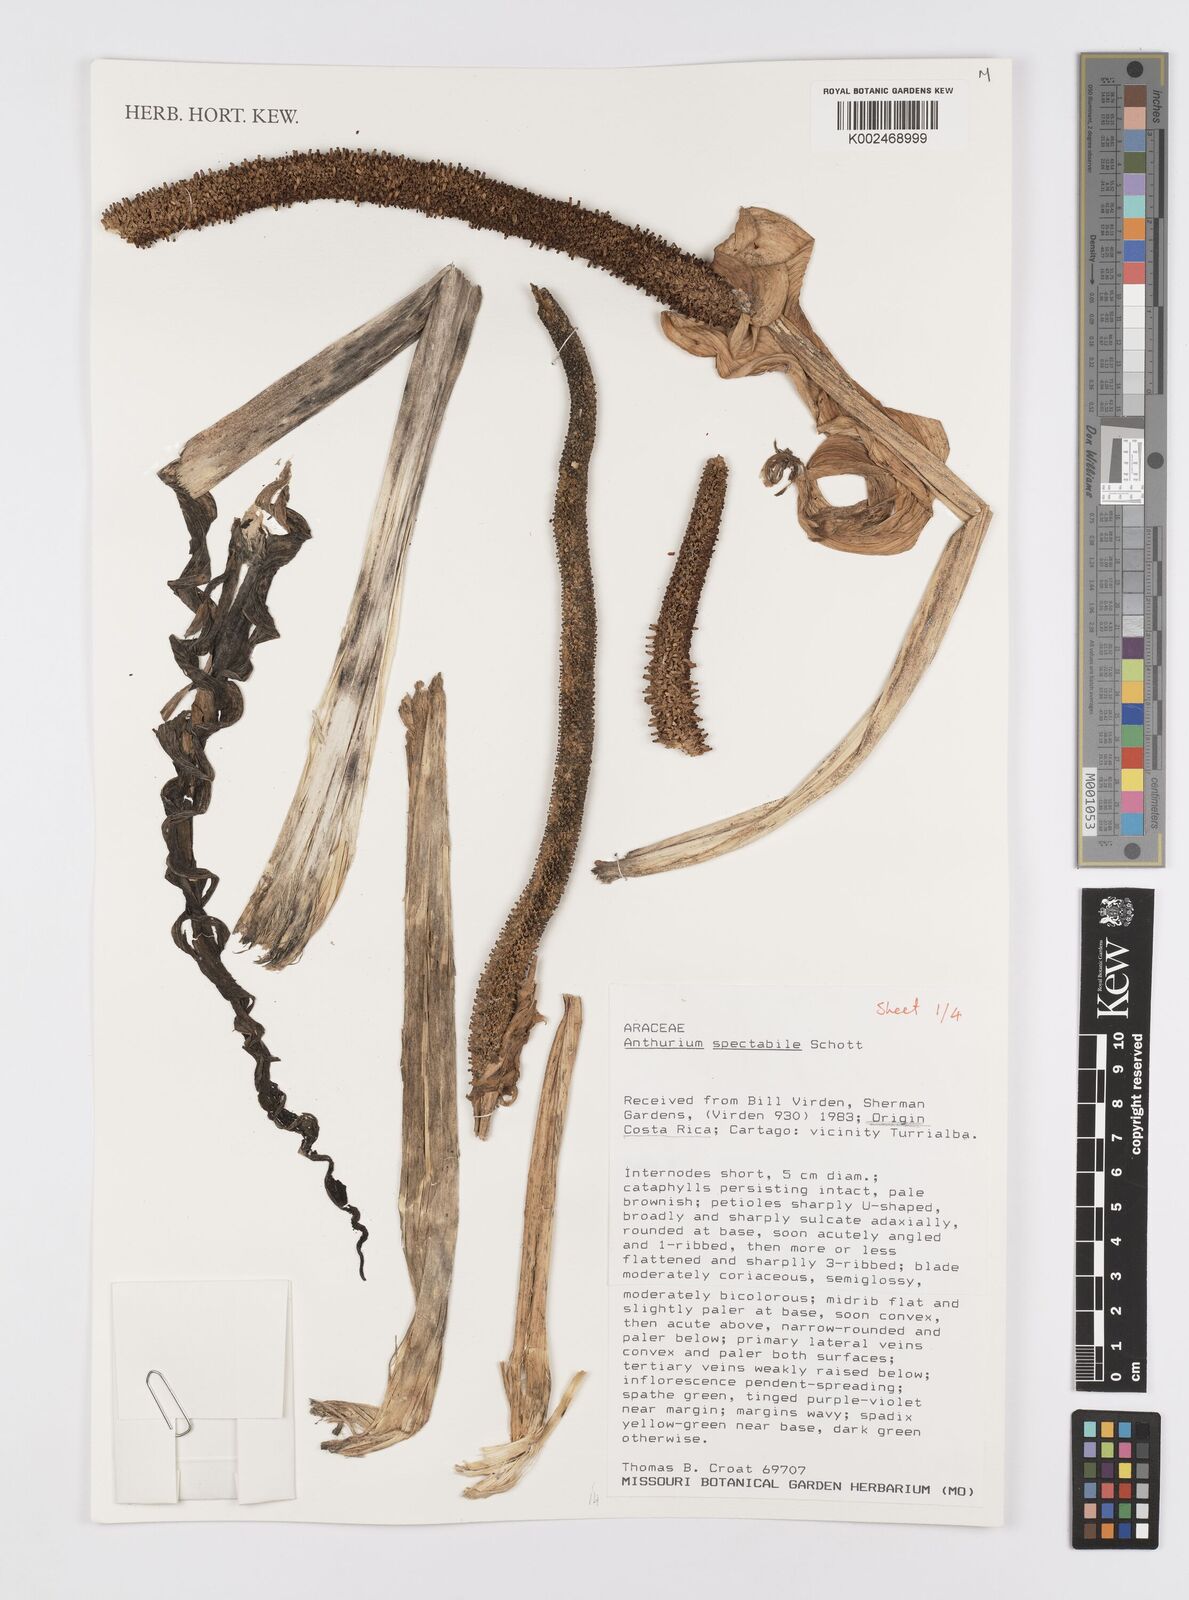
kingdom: Plantae
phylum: Tracheophyta
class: Liliopsida
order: Alismatales
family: Araceae
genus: Anthurium
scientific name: Anthurium spectabile
